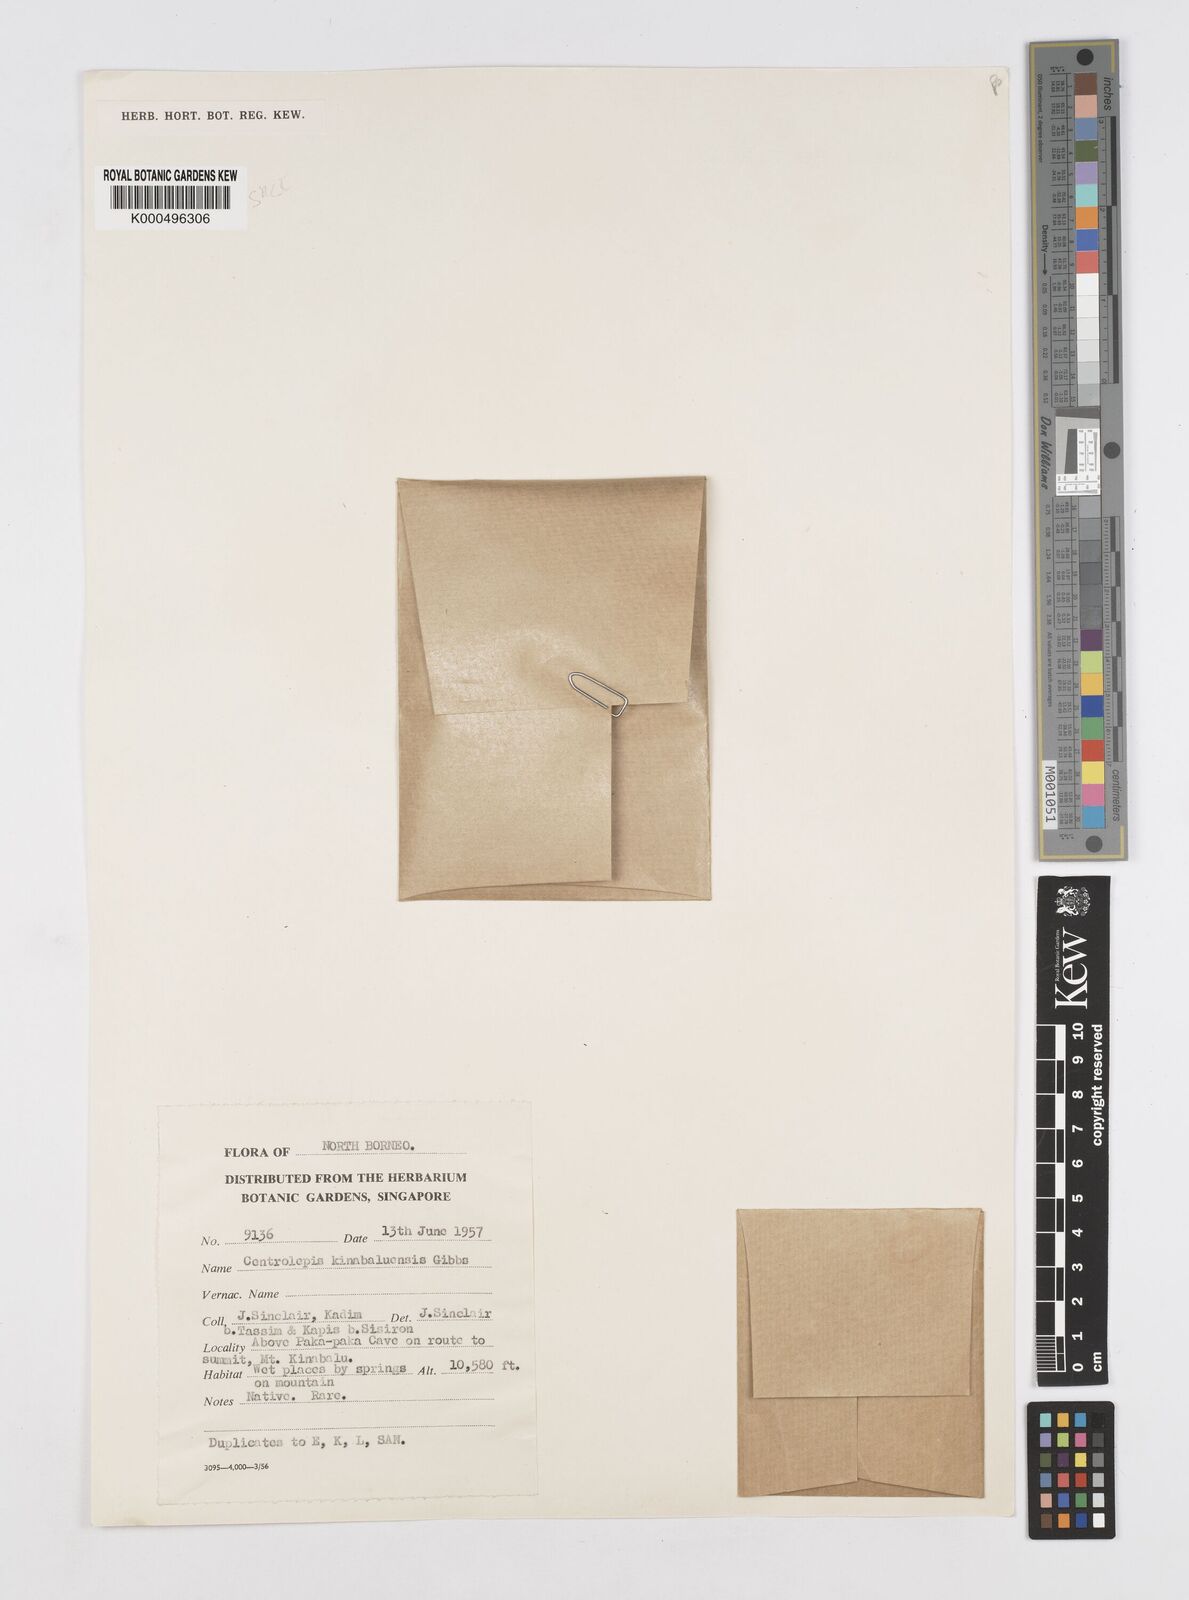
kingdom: Plantae
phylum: Tracheophyta
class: Liliopsida
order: Poales
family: Restionaceae
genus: Centrolepis
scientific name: Centrolepis philippinensis
